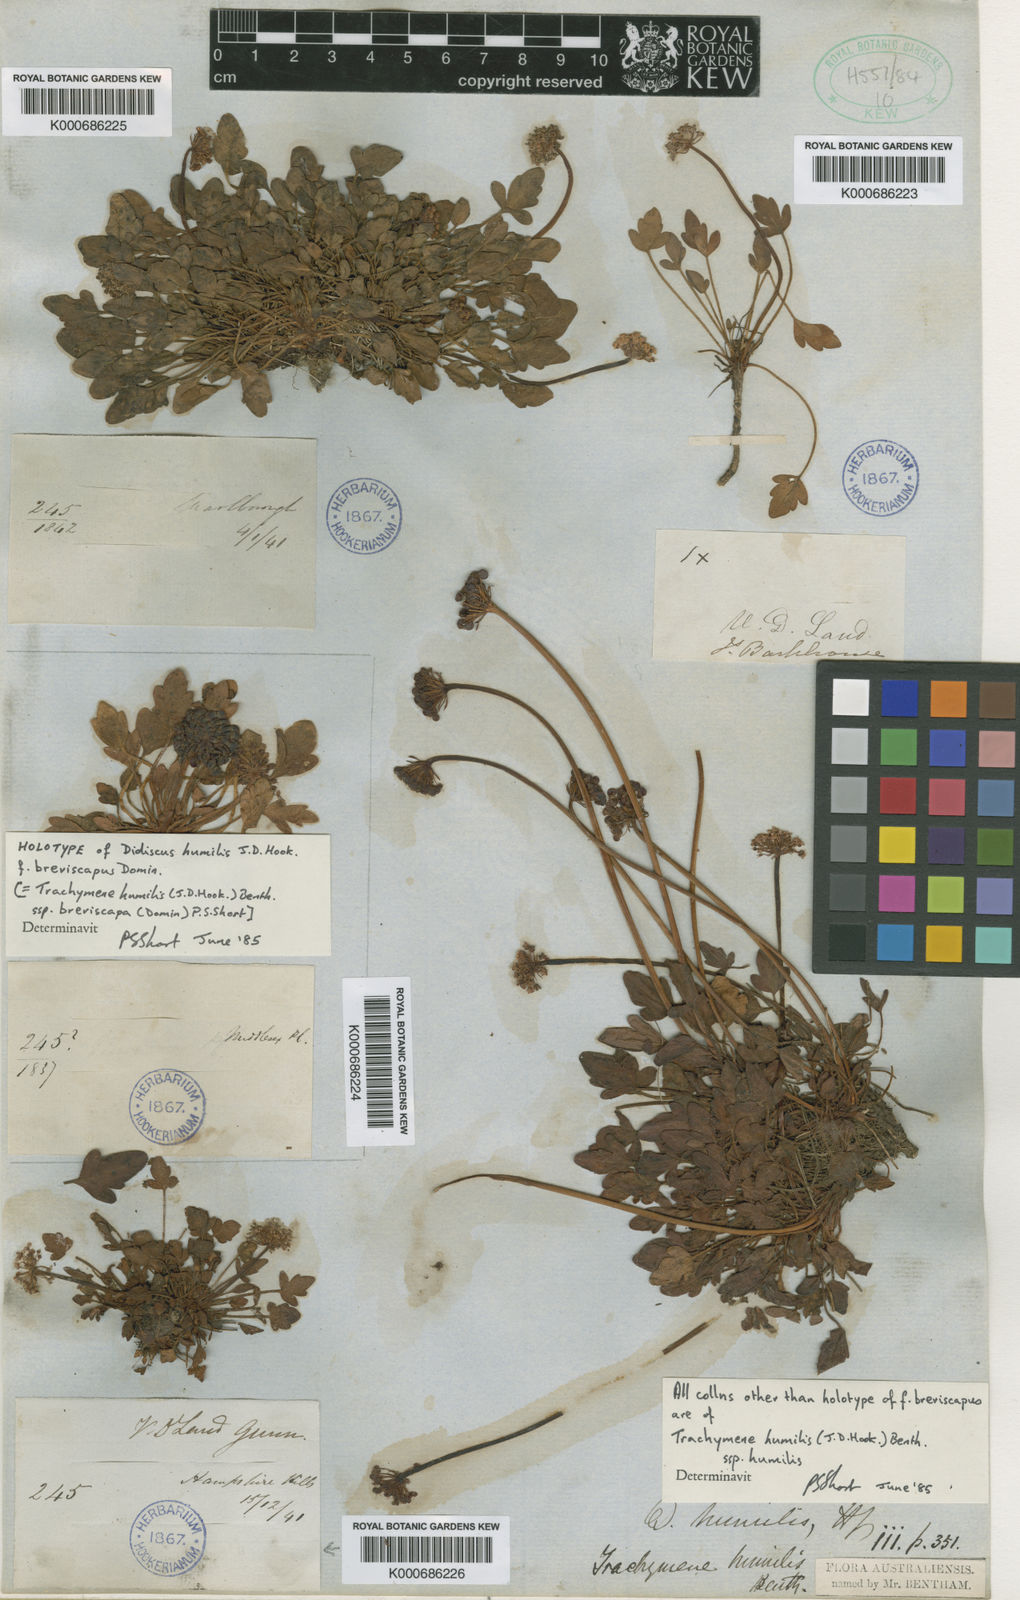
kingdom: Plantae
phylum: Tracheophyta
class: Magnoliopsida
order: Apiales
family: Araliaceae
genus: Trachymene
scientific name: Trachymene humilis
